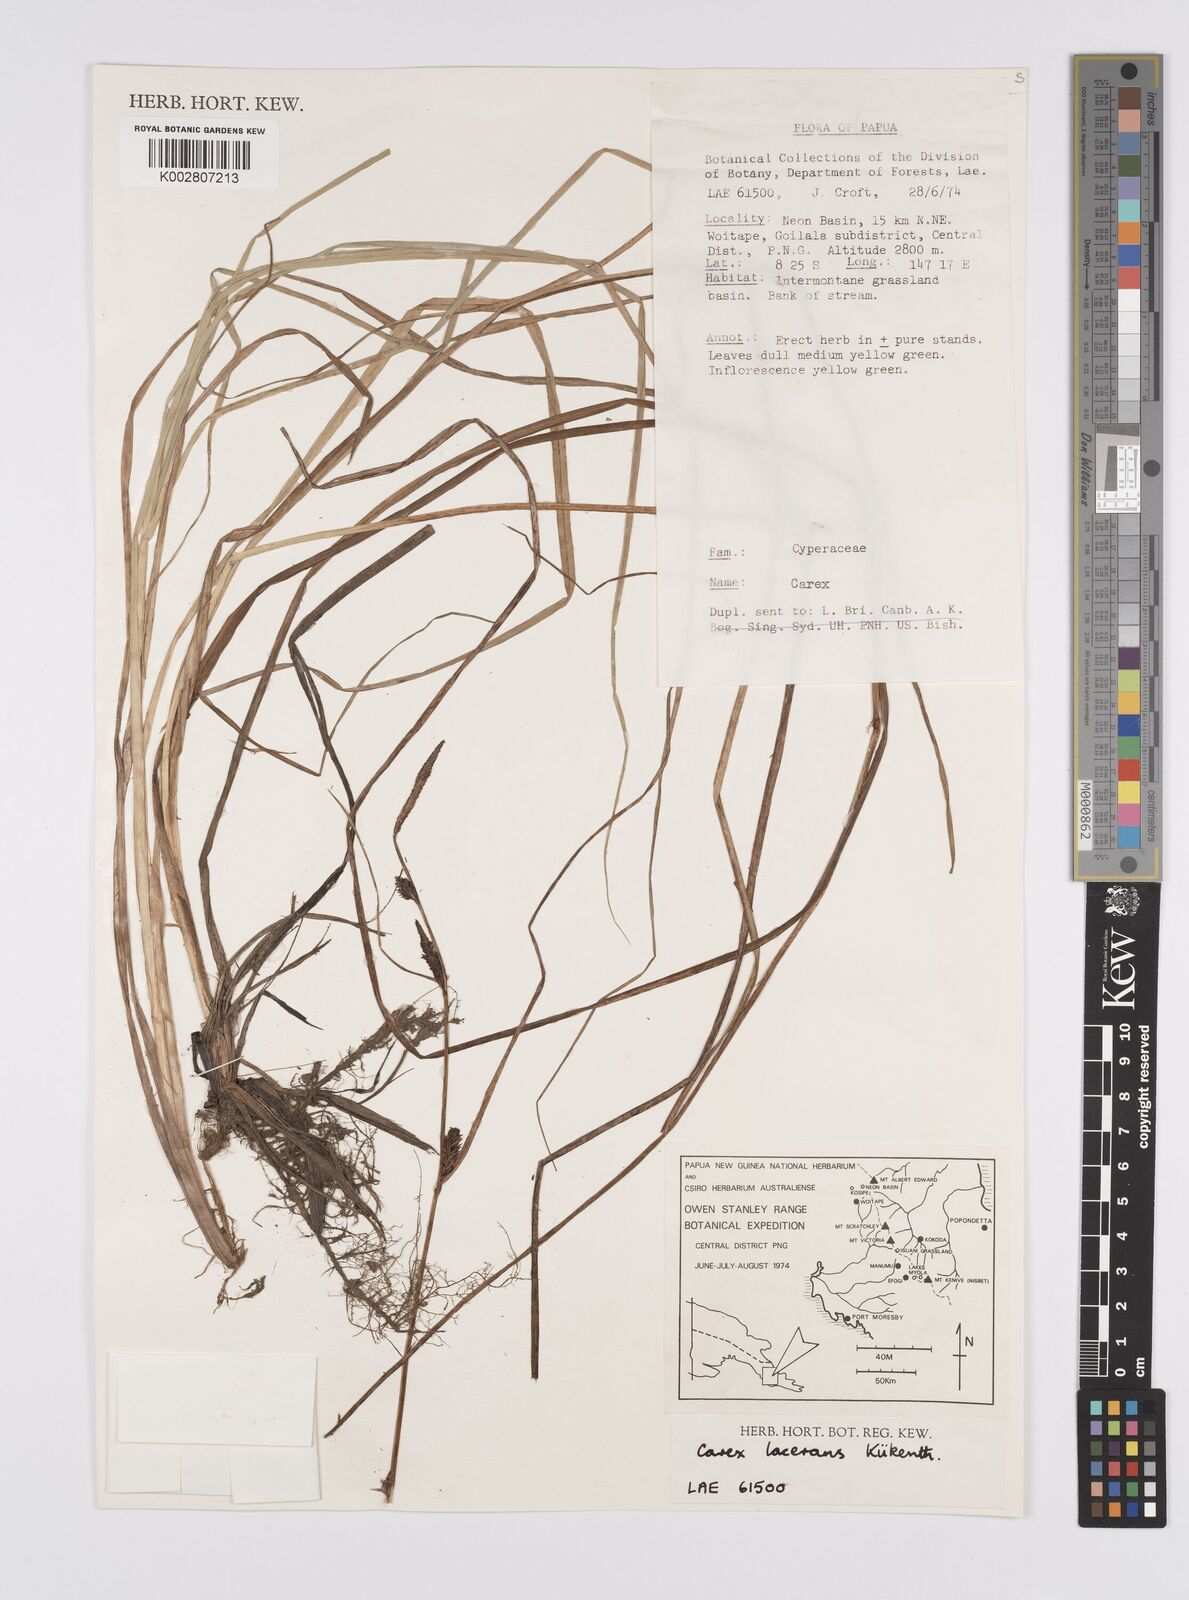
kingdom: Plantae
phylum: Tracheophyta
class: Liliopsida
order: Poales
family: Cyperaceae
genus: Carex
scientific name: Carex gaudichaudiana
